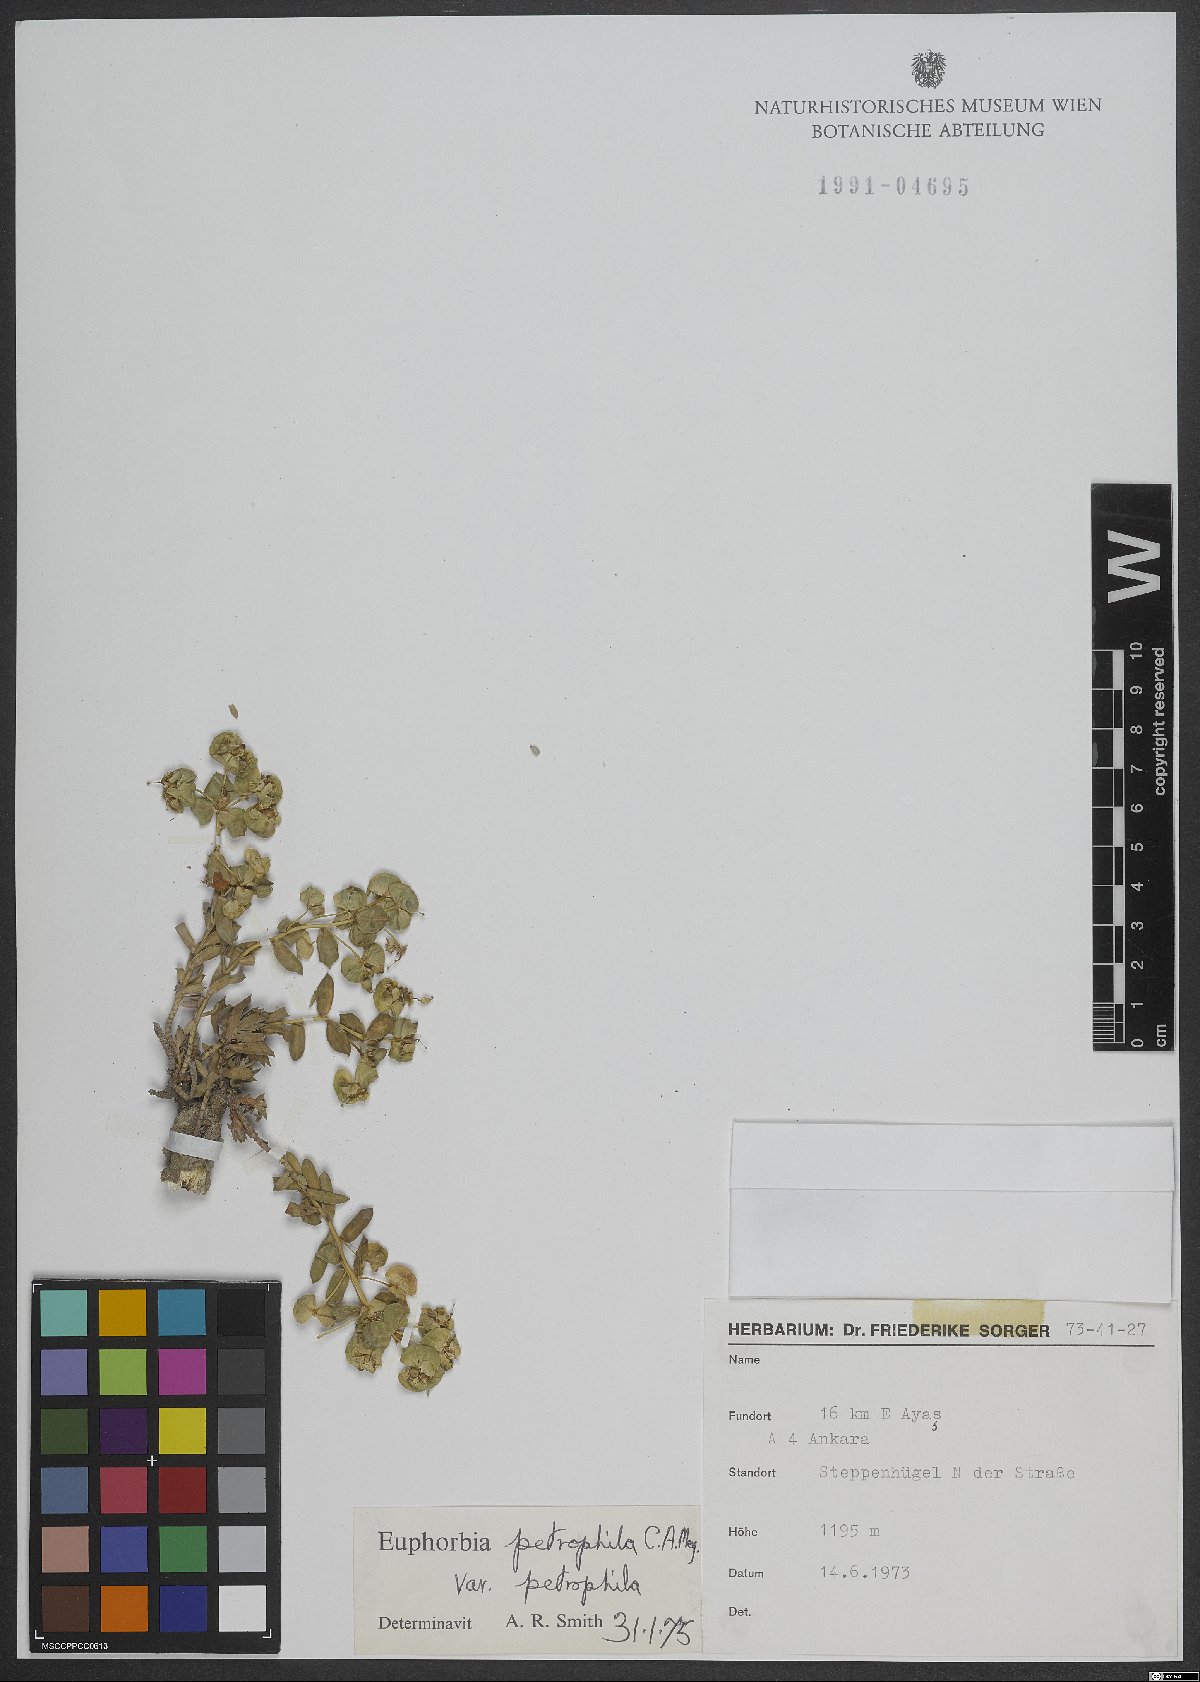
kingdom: Plantae
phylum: Tracheophyta
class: Magnoliopsida
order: Malpighiales
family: Euphorbiaceae
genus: Euphorbia
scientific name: Euphorbia petrophila
